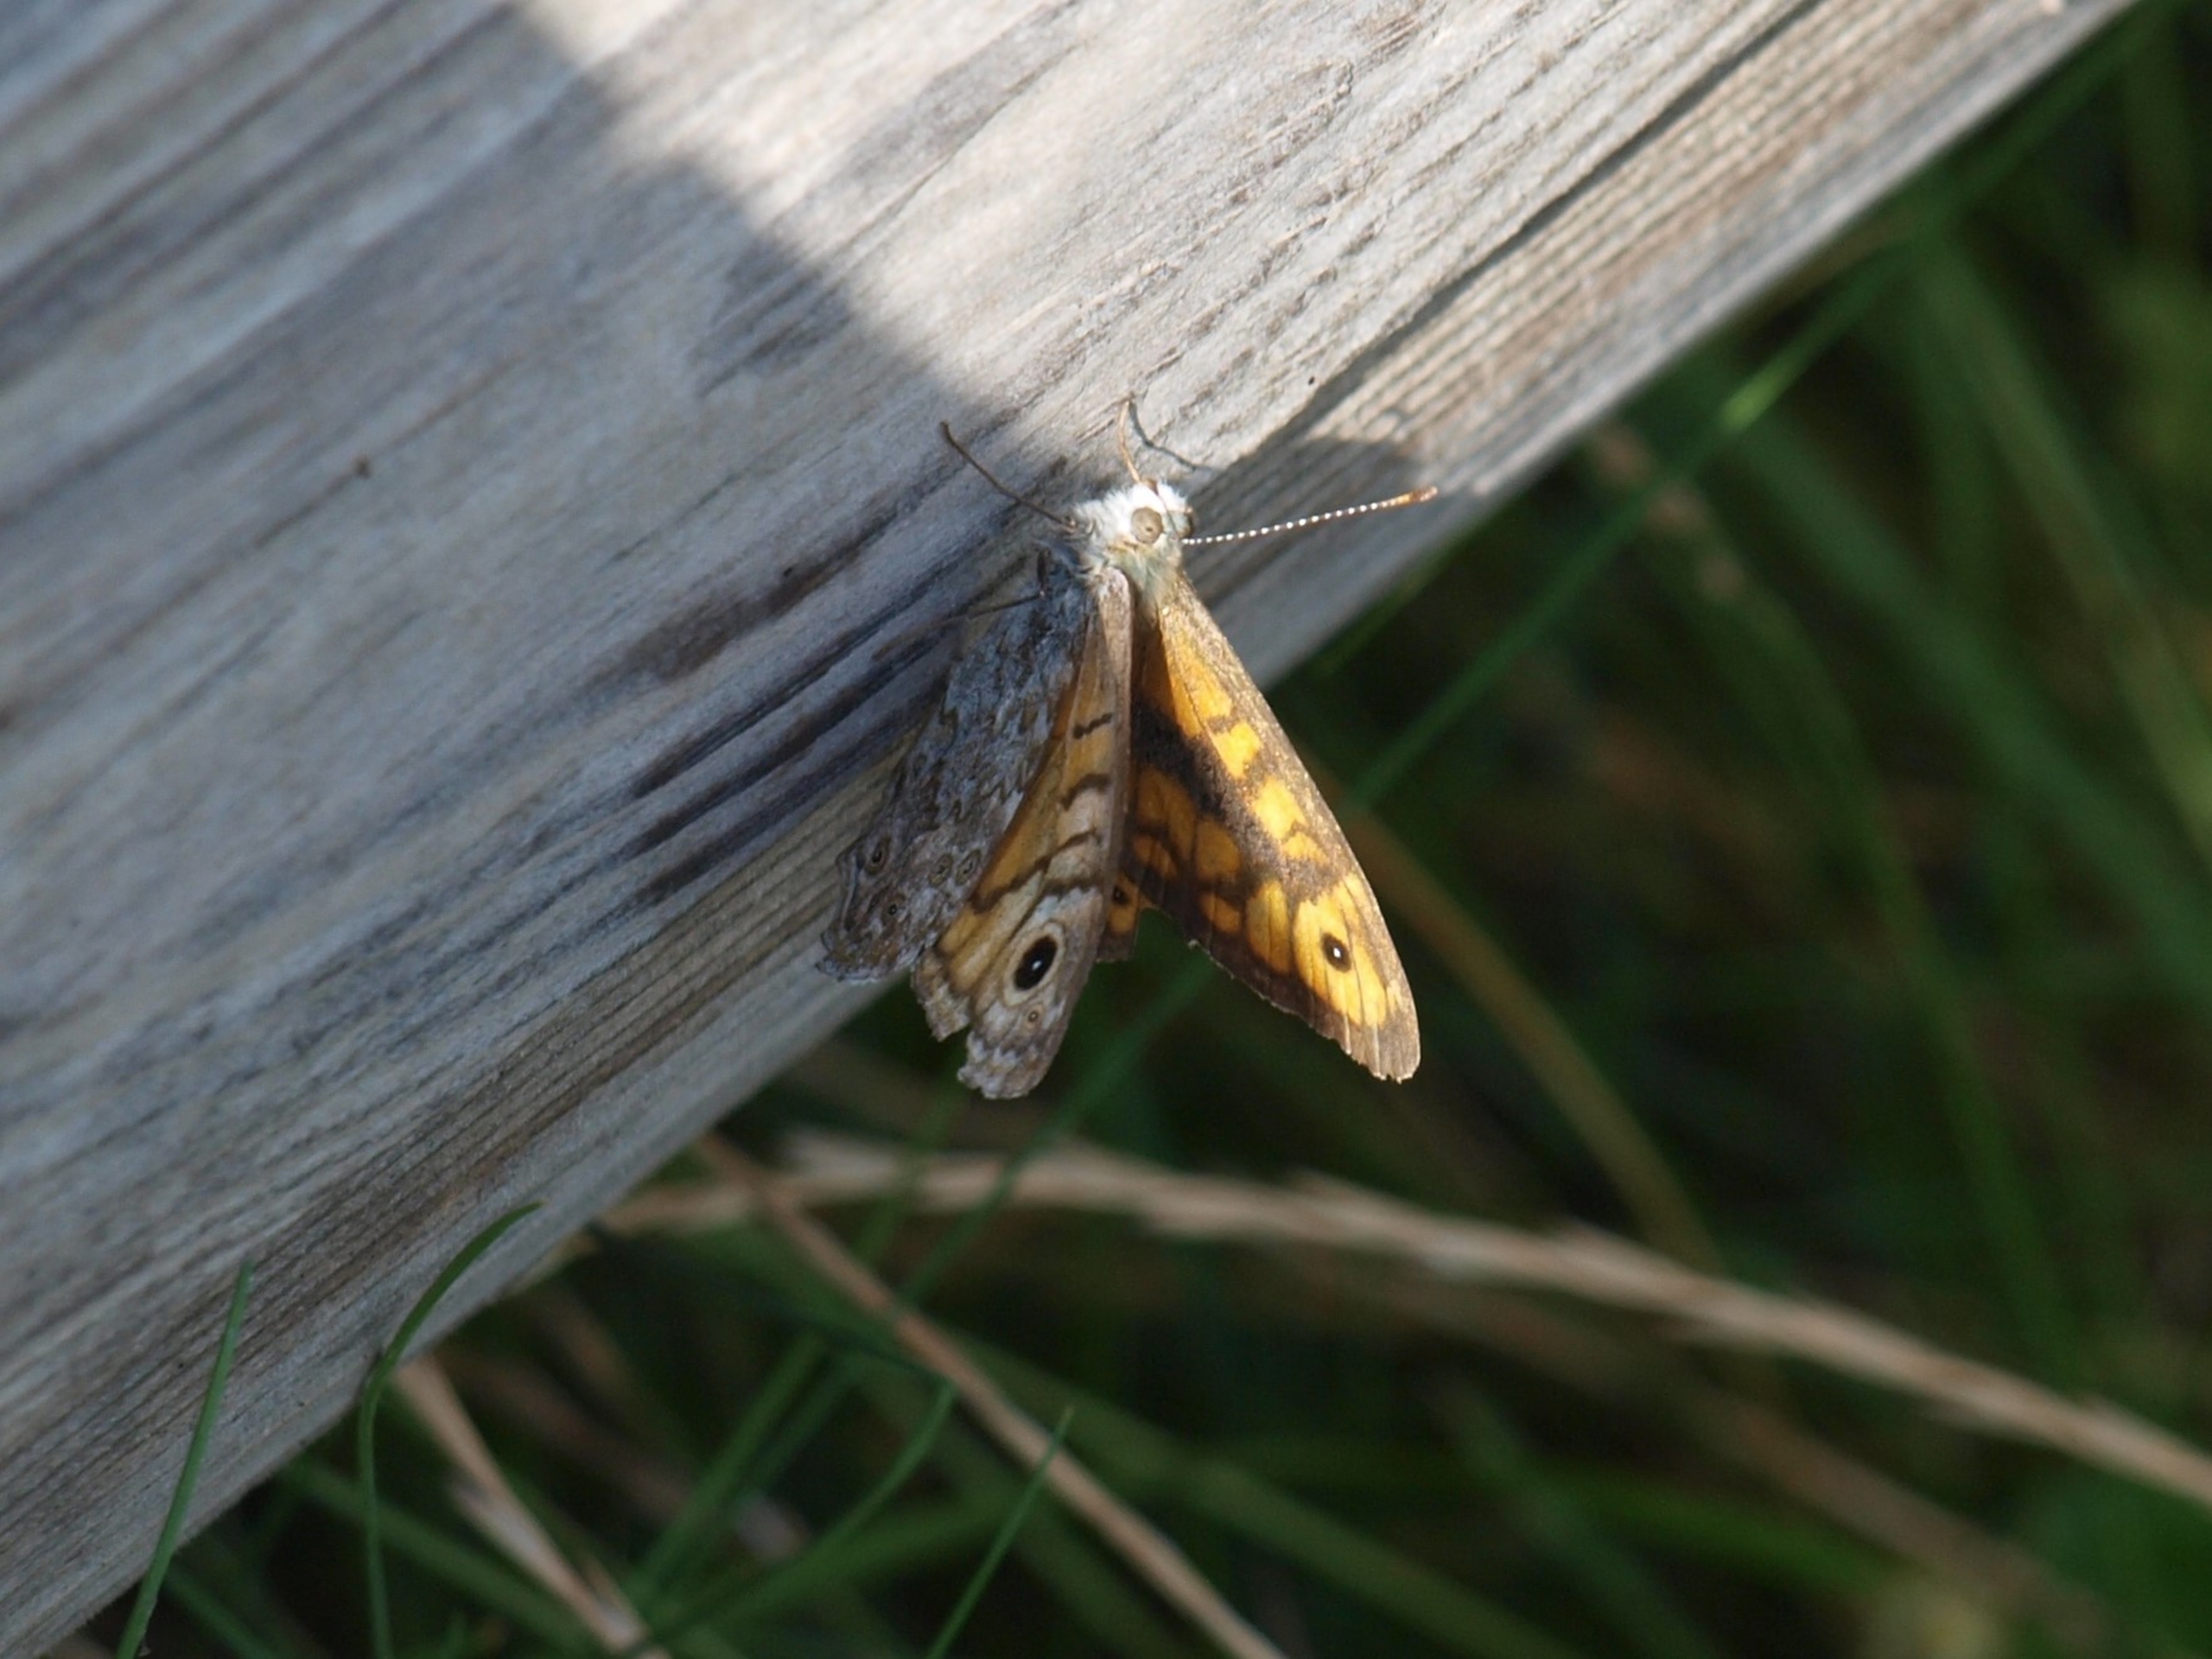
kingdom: Animalia
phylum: Arthropoda
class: Insecta
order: Lepidoptera
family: Nymphalidae
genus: Pararge
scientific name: Pararge Lasiommata megera
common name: Vejrandøje
